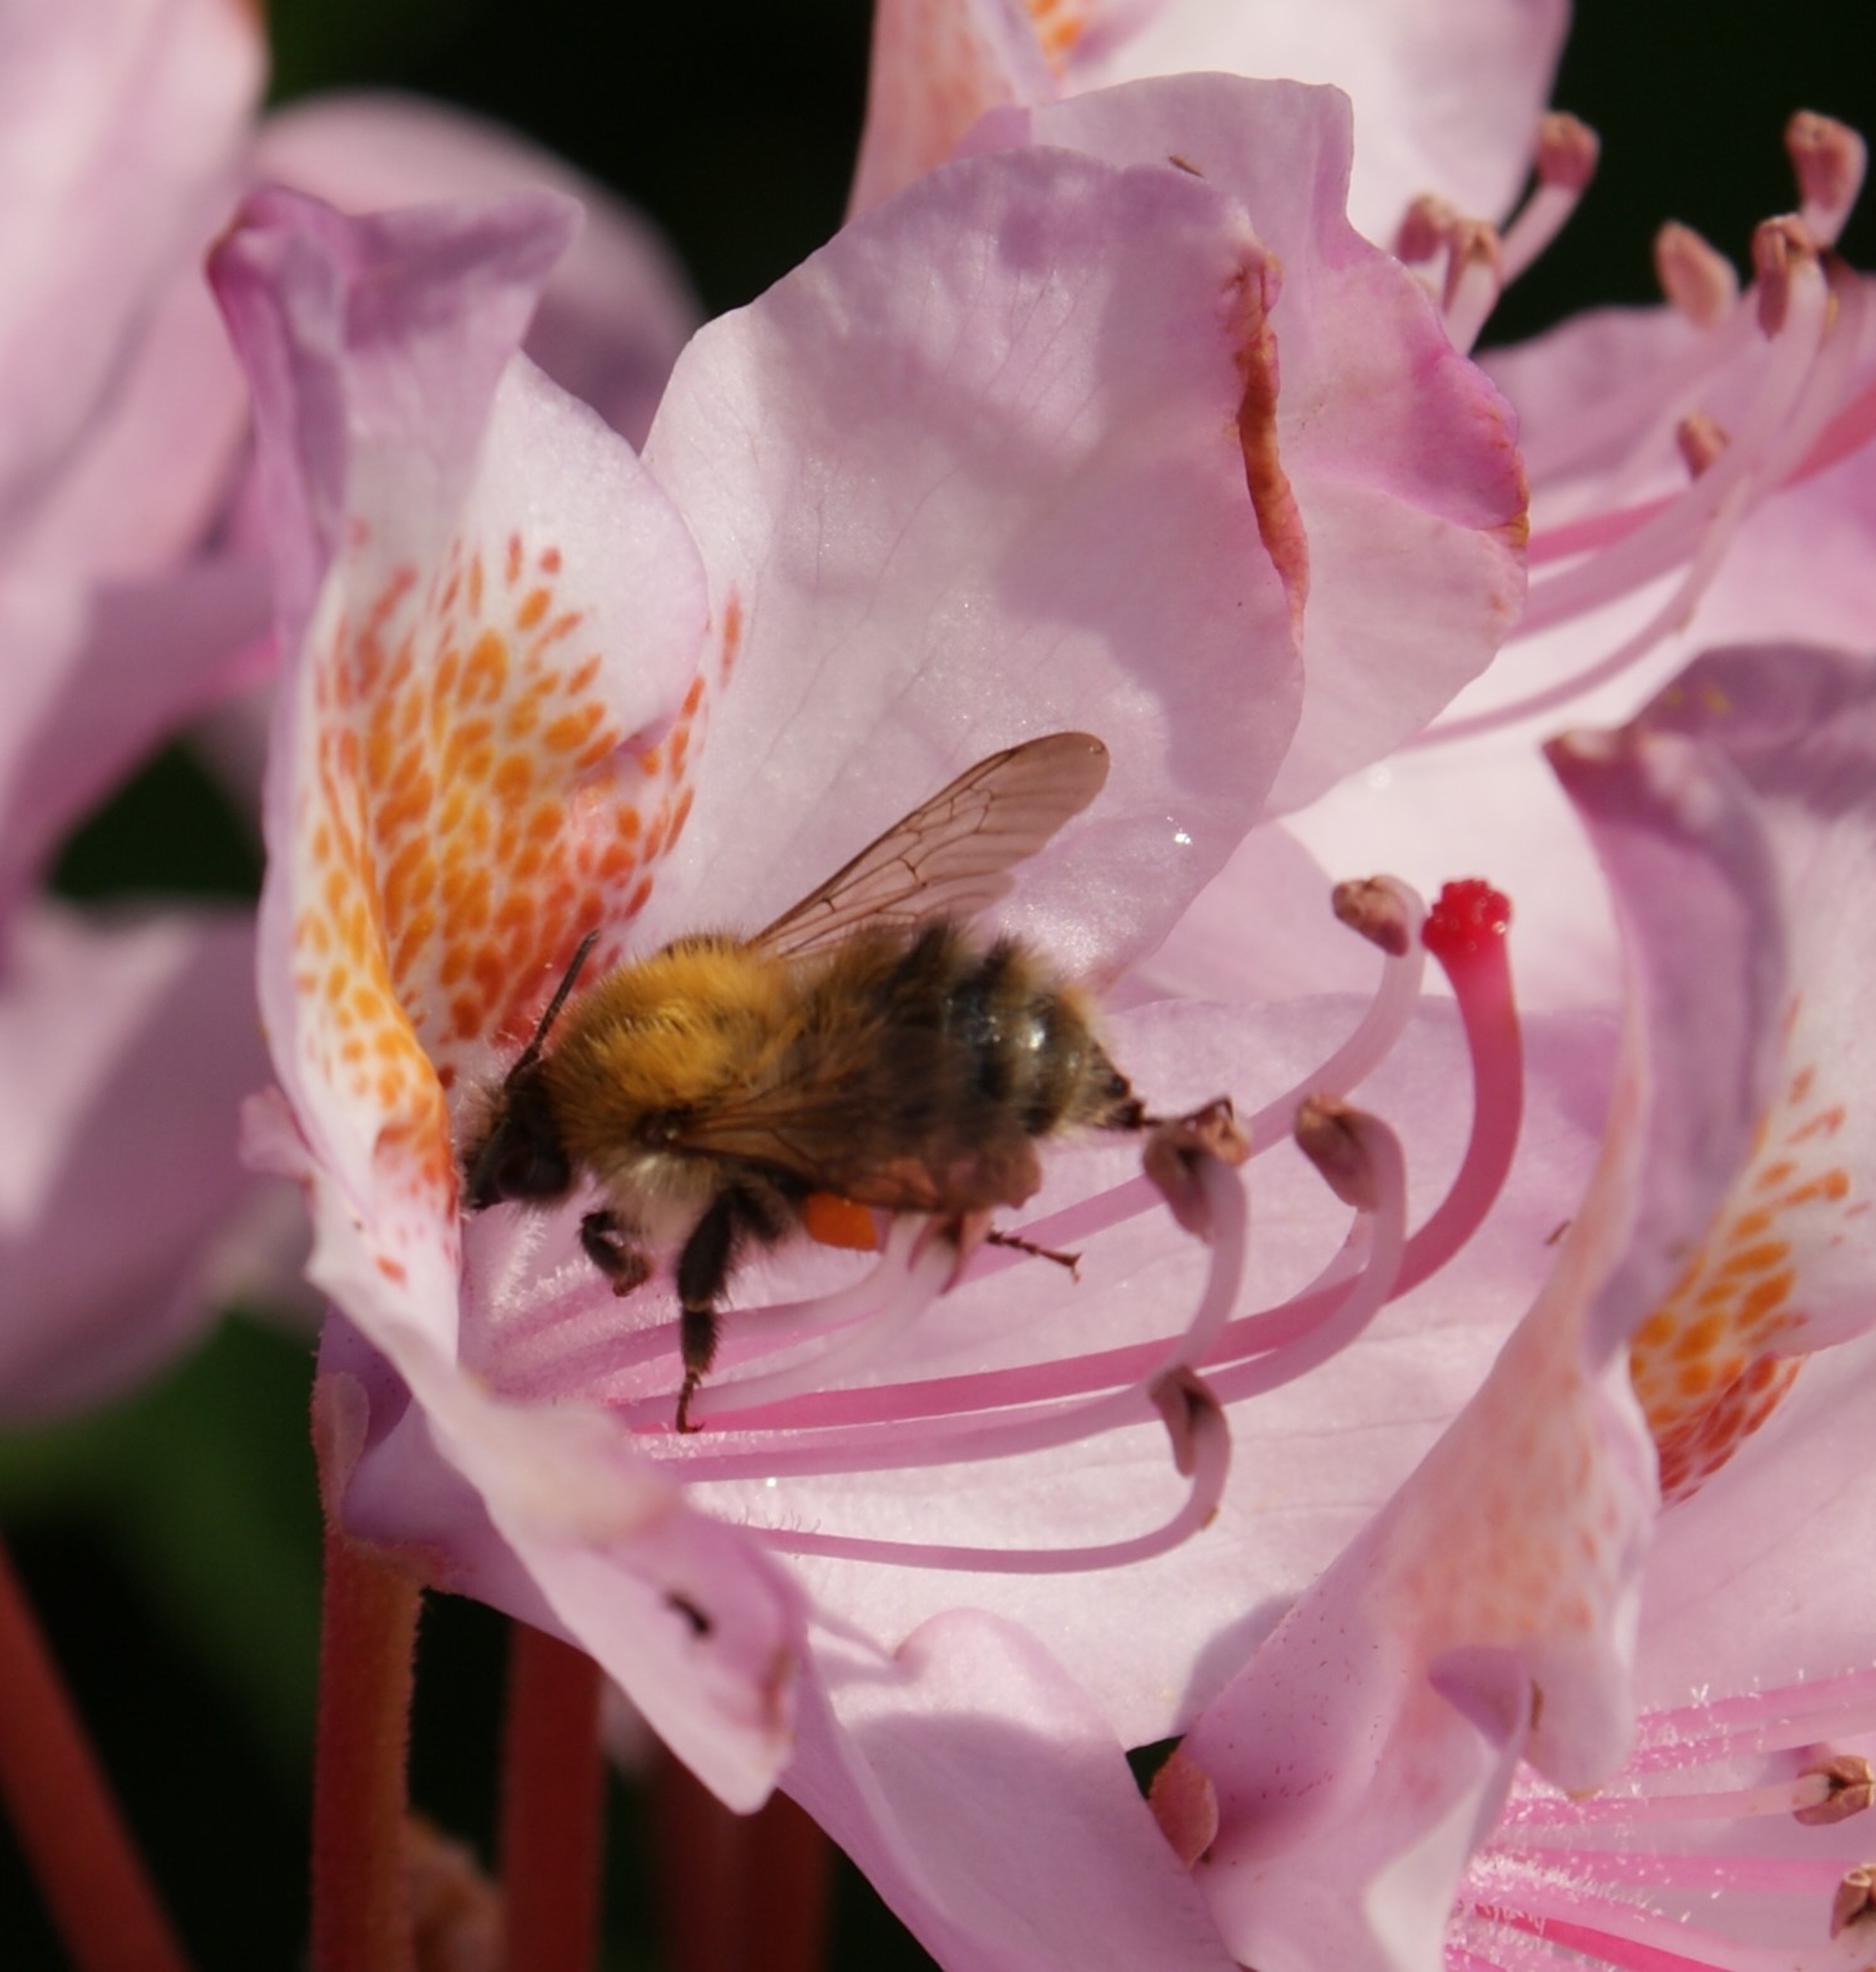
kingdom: Animalia
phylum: Arthropoda
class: Insecta
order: Hymenoptera
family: Apidae
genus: Bombus
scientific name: Bombus pascuorum
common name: Agerhumle
